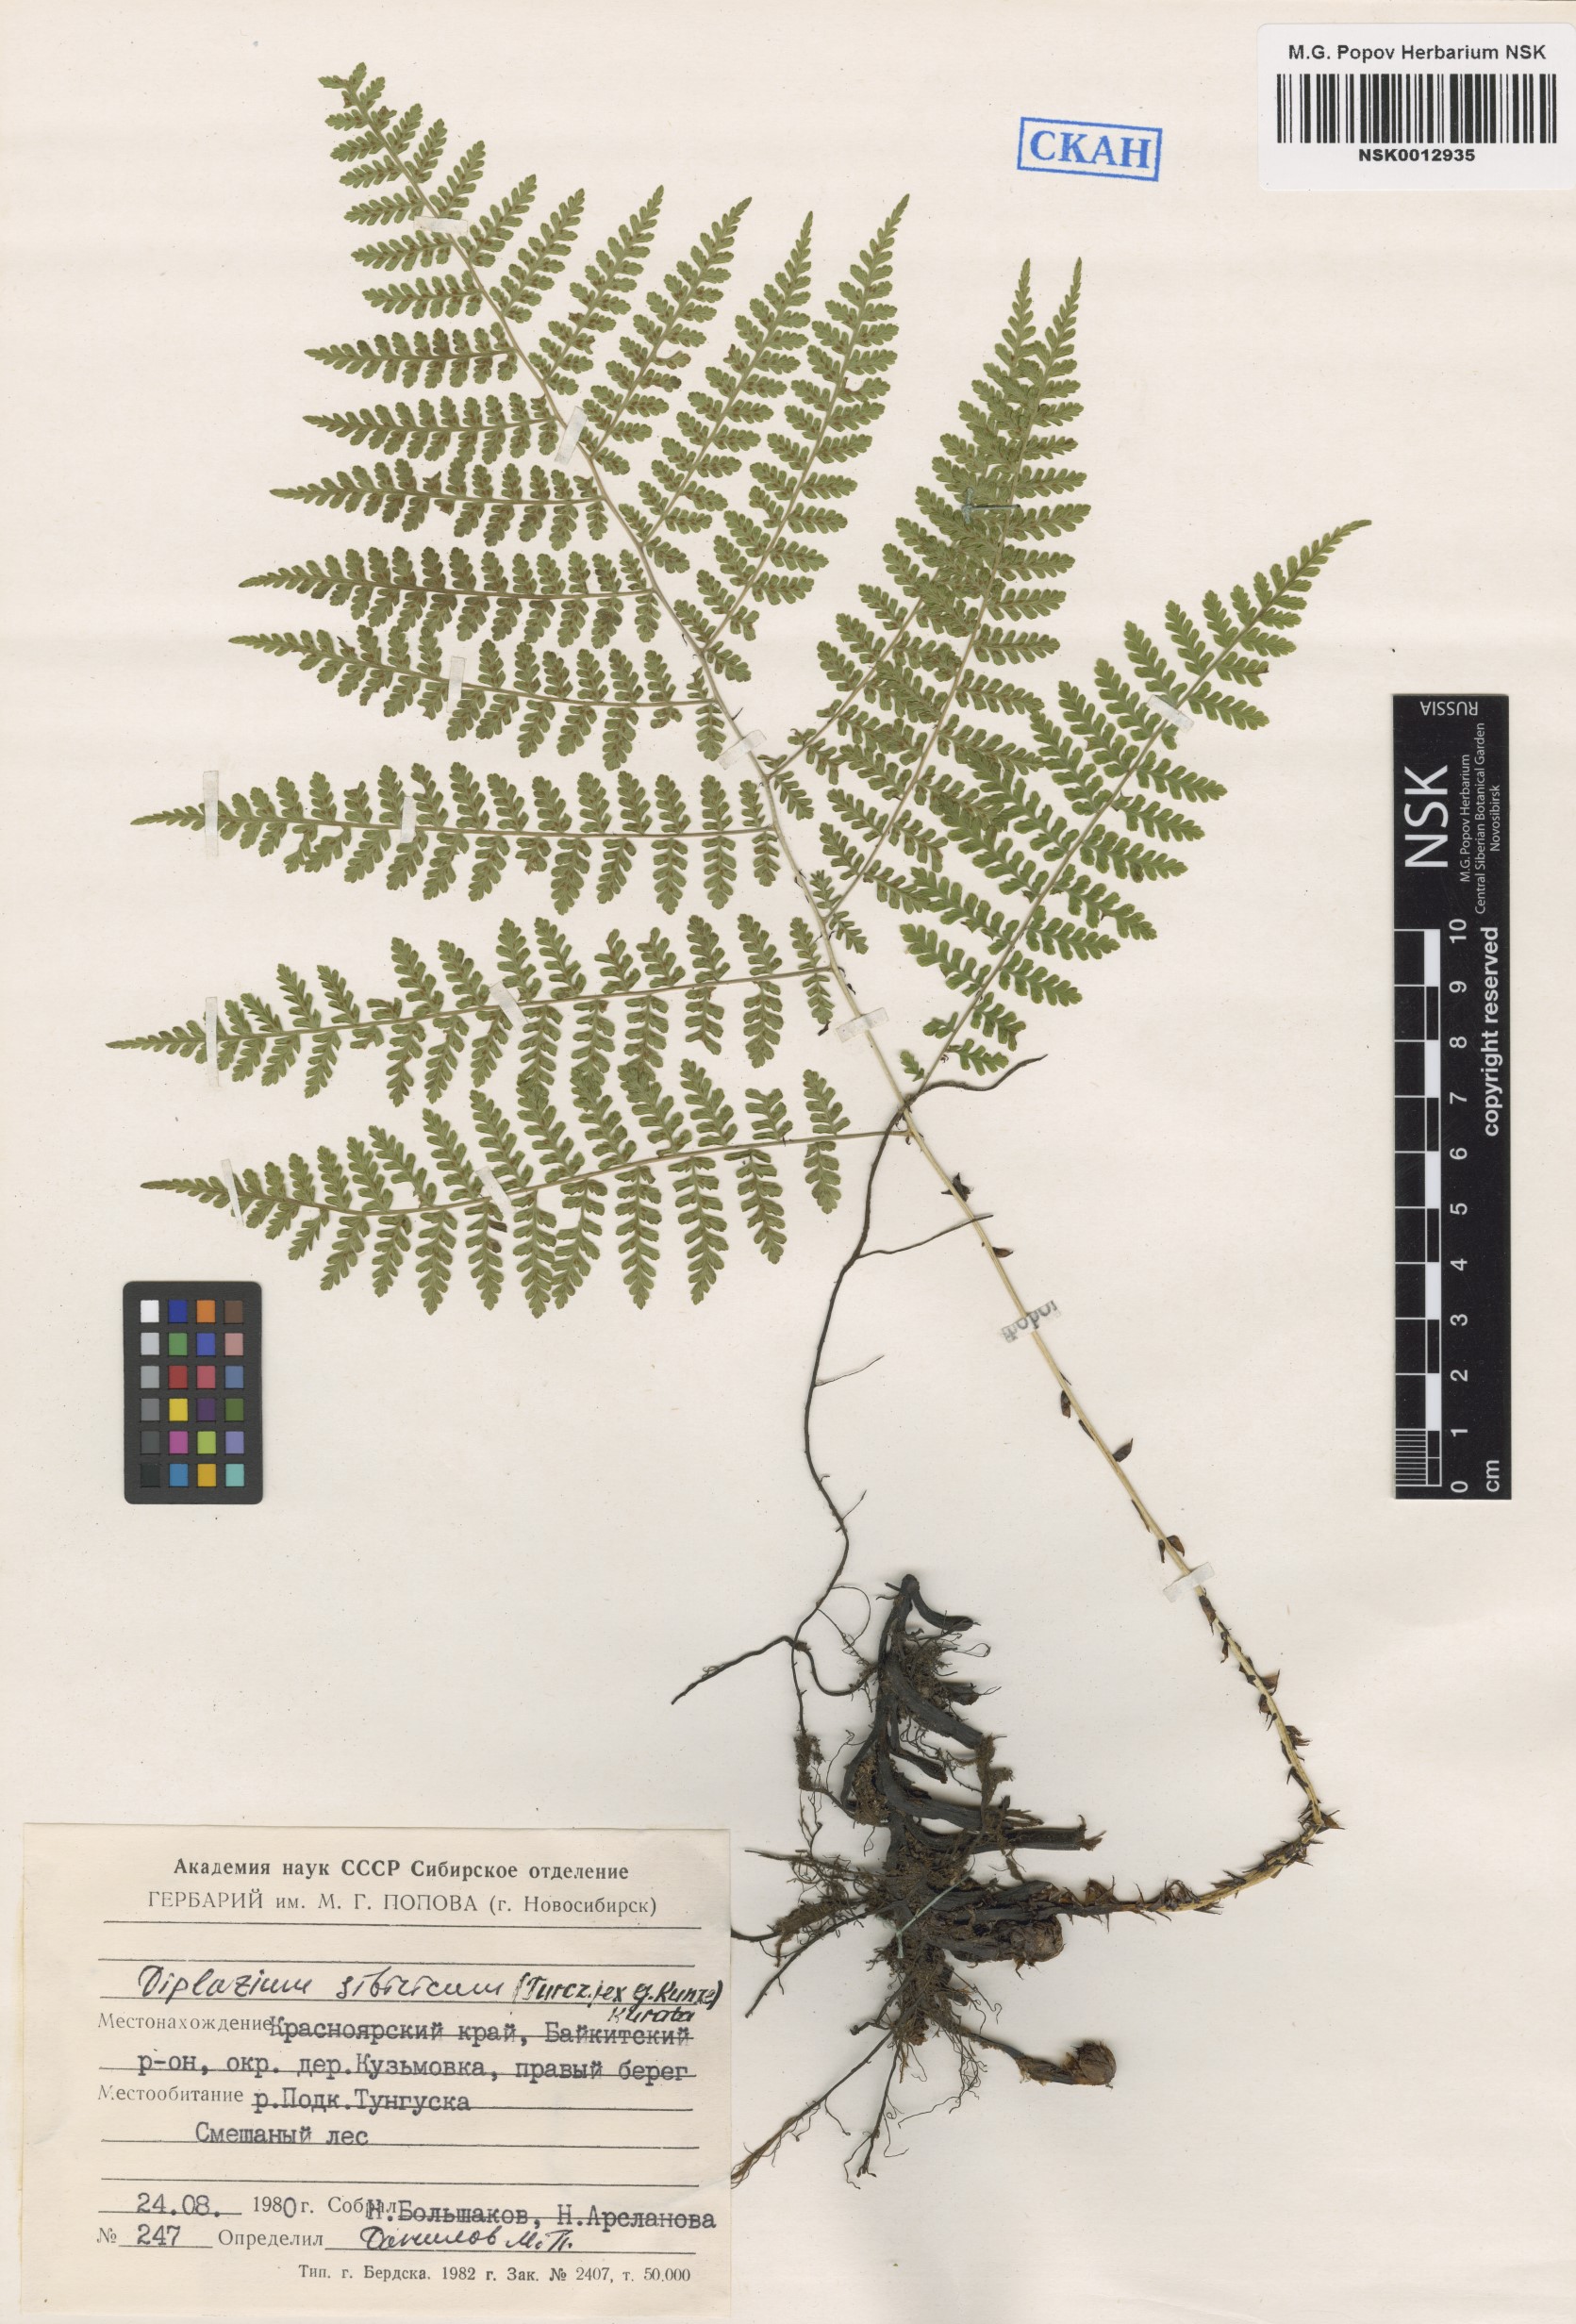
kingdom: Plantae
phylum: Tracheophyta
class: Polypodiopsida
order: Polypodiales
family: Athyriaceae
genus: Diplazium
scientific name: Diplazium sibiricum
